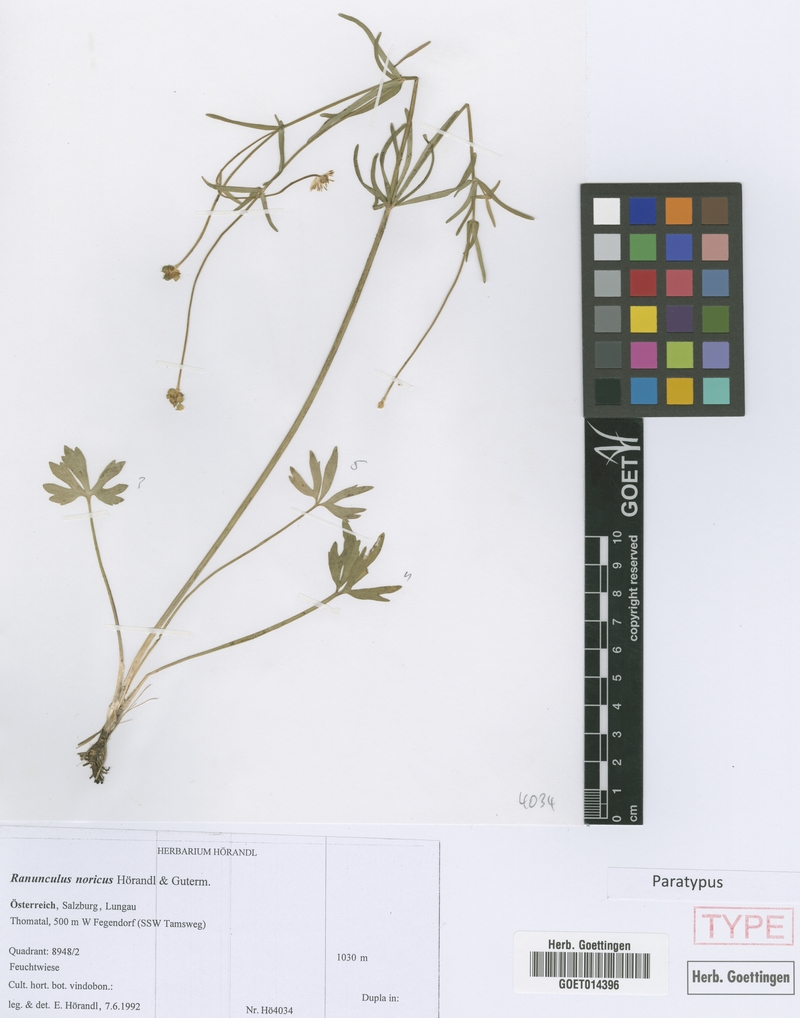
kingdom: Plantae
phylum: Tracheophyta
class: Magnoliopsida
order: Ranunculales
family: Ranunculaceae
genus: Ranunculus
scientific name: Ranunculus noricus
